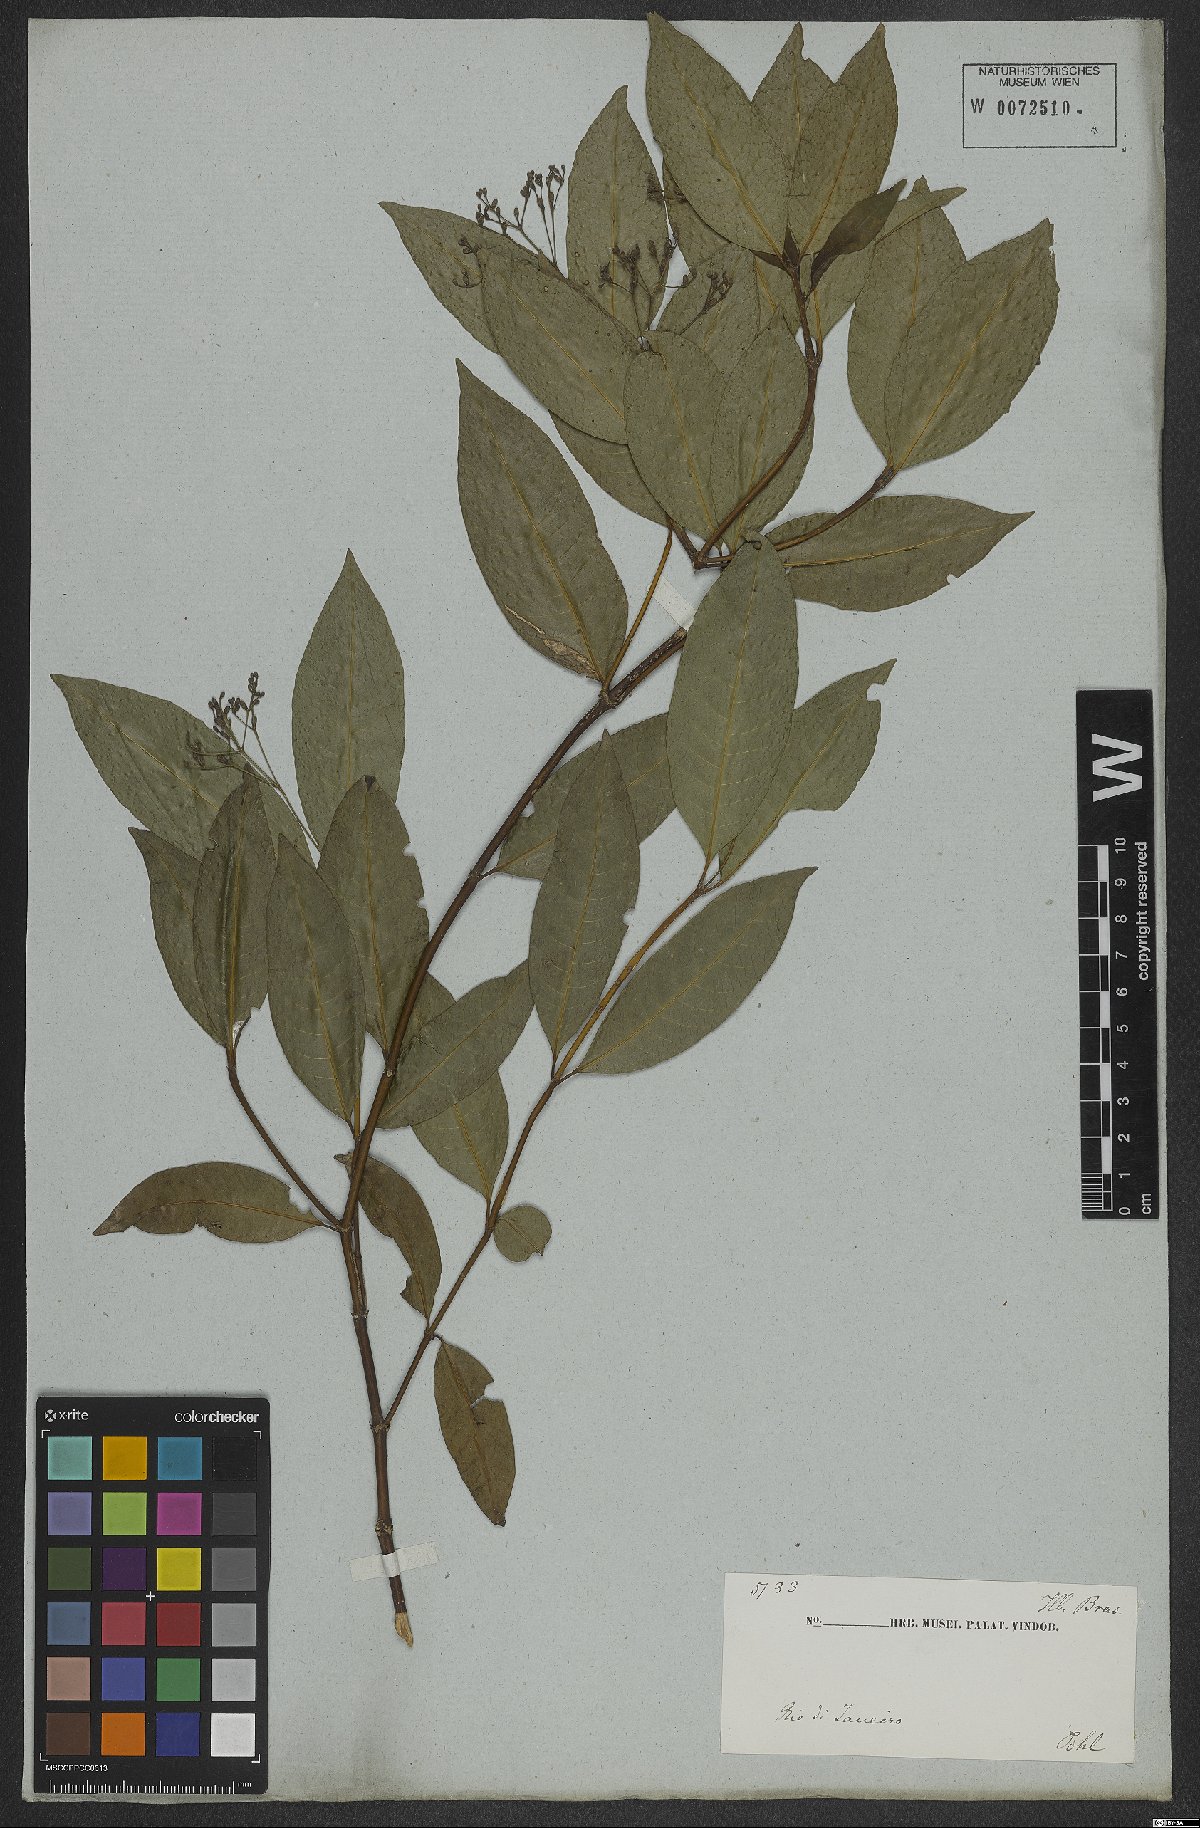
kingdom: Plantae
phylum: Tracheophyta
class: Magnoliopsida
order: Gentianales
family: Rubiaceae
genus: Psychotria
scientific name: Psychotria leiocarpa
